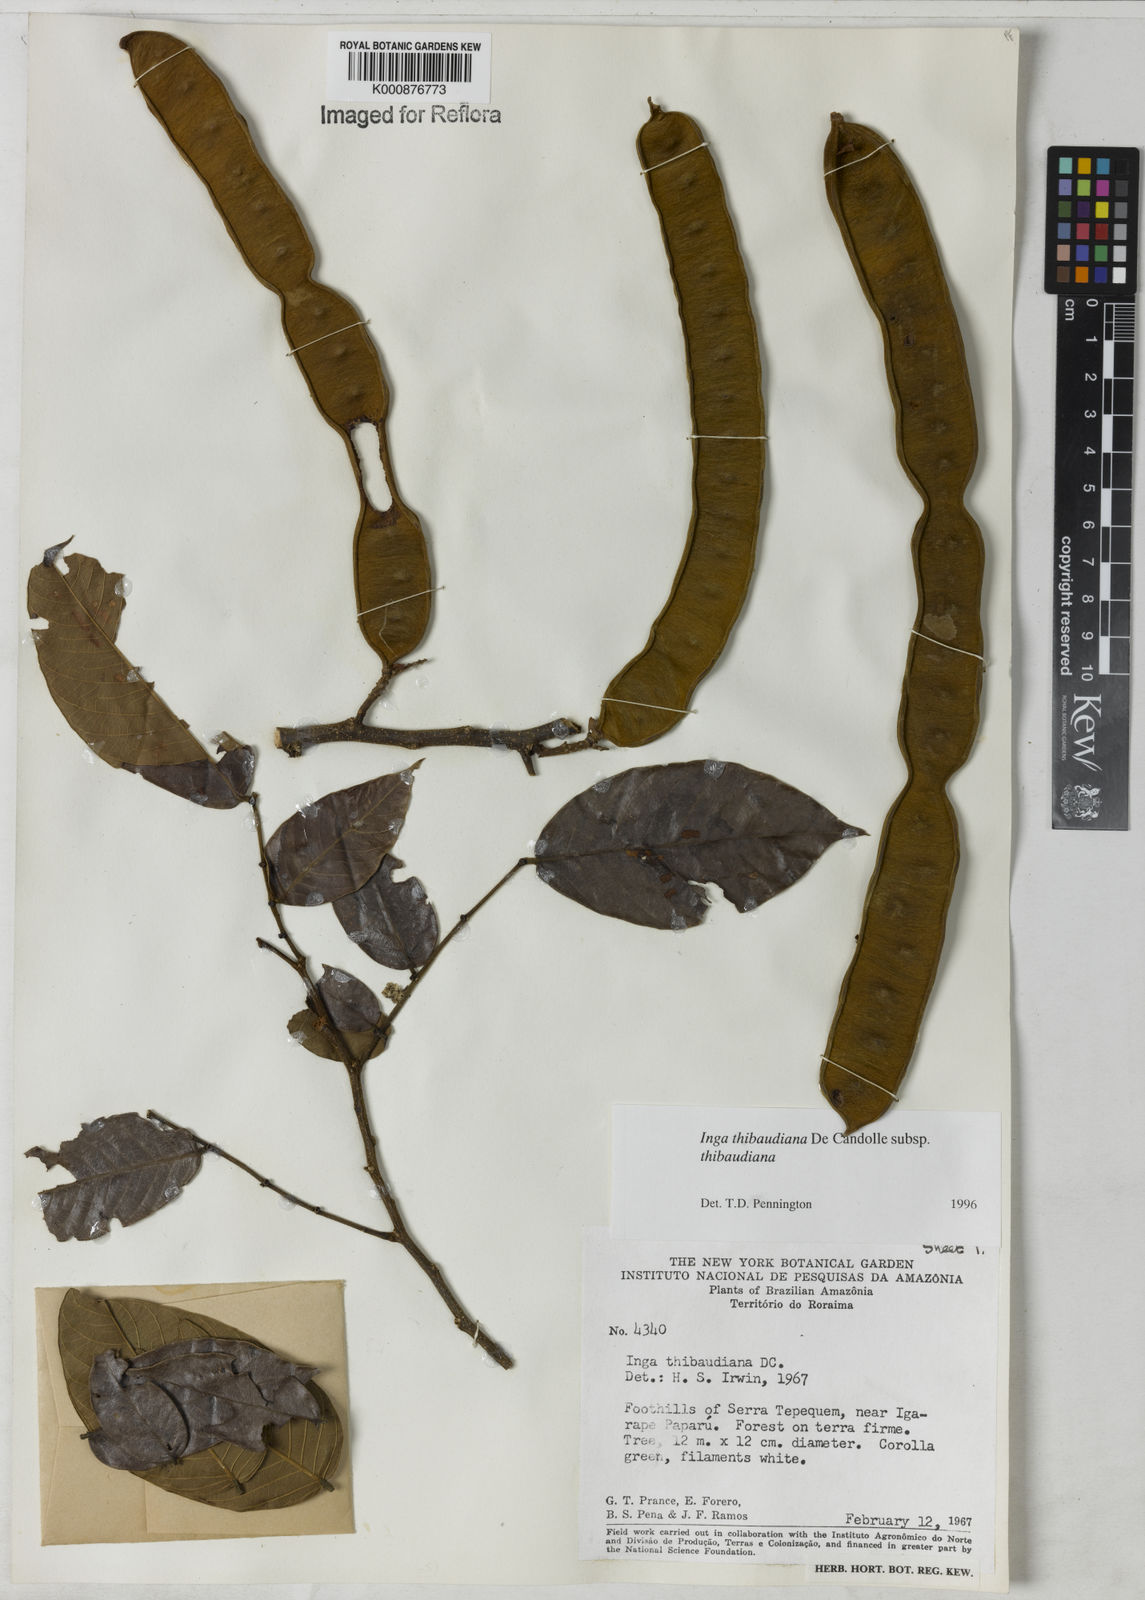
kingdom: Plantae
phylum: Tracheophyta
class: Magnoliopsida
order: Fabales
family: Fabaceae
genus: Inga
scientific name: Inga thibaudiana
